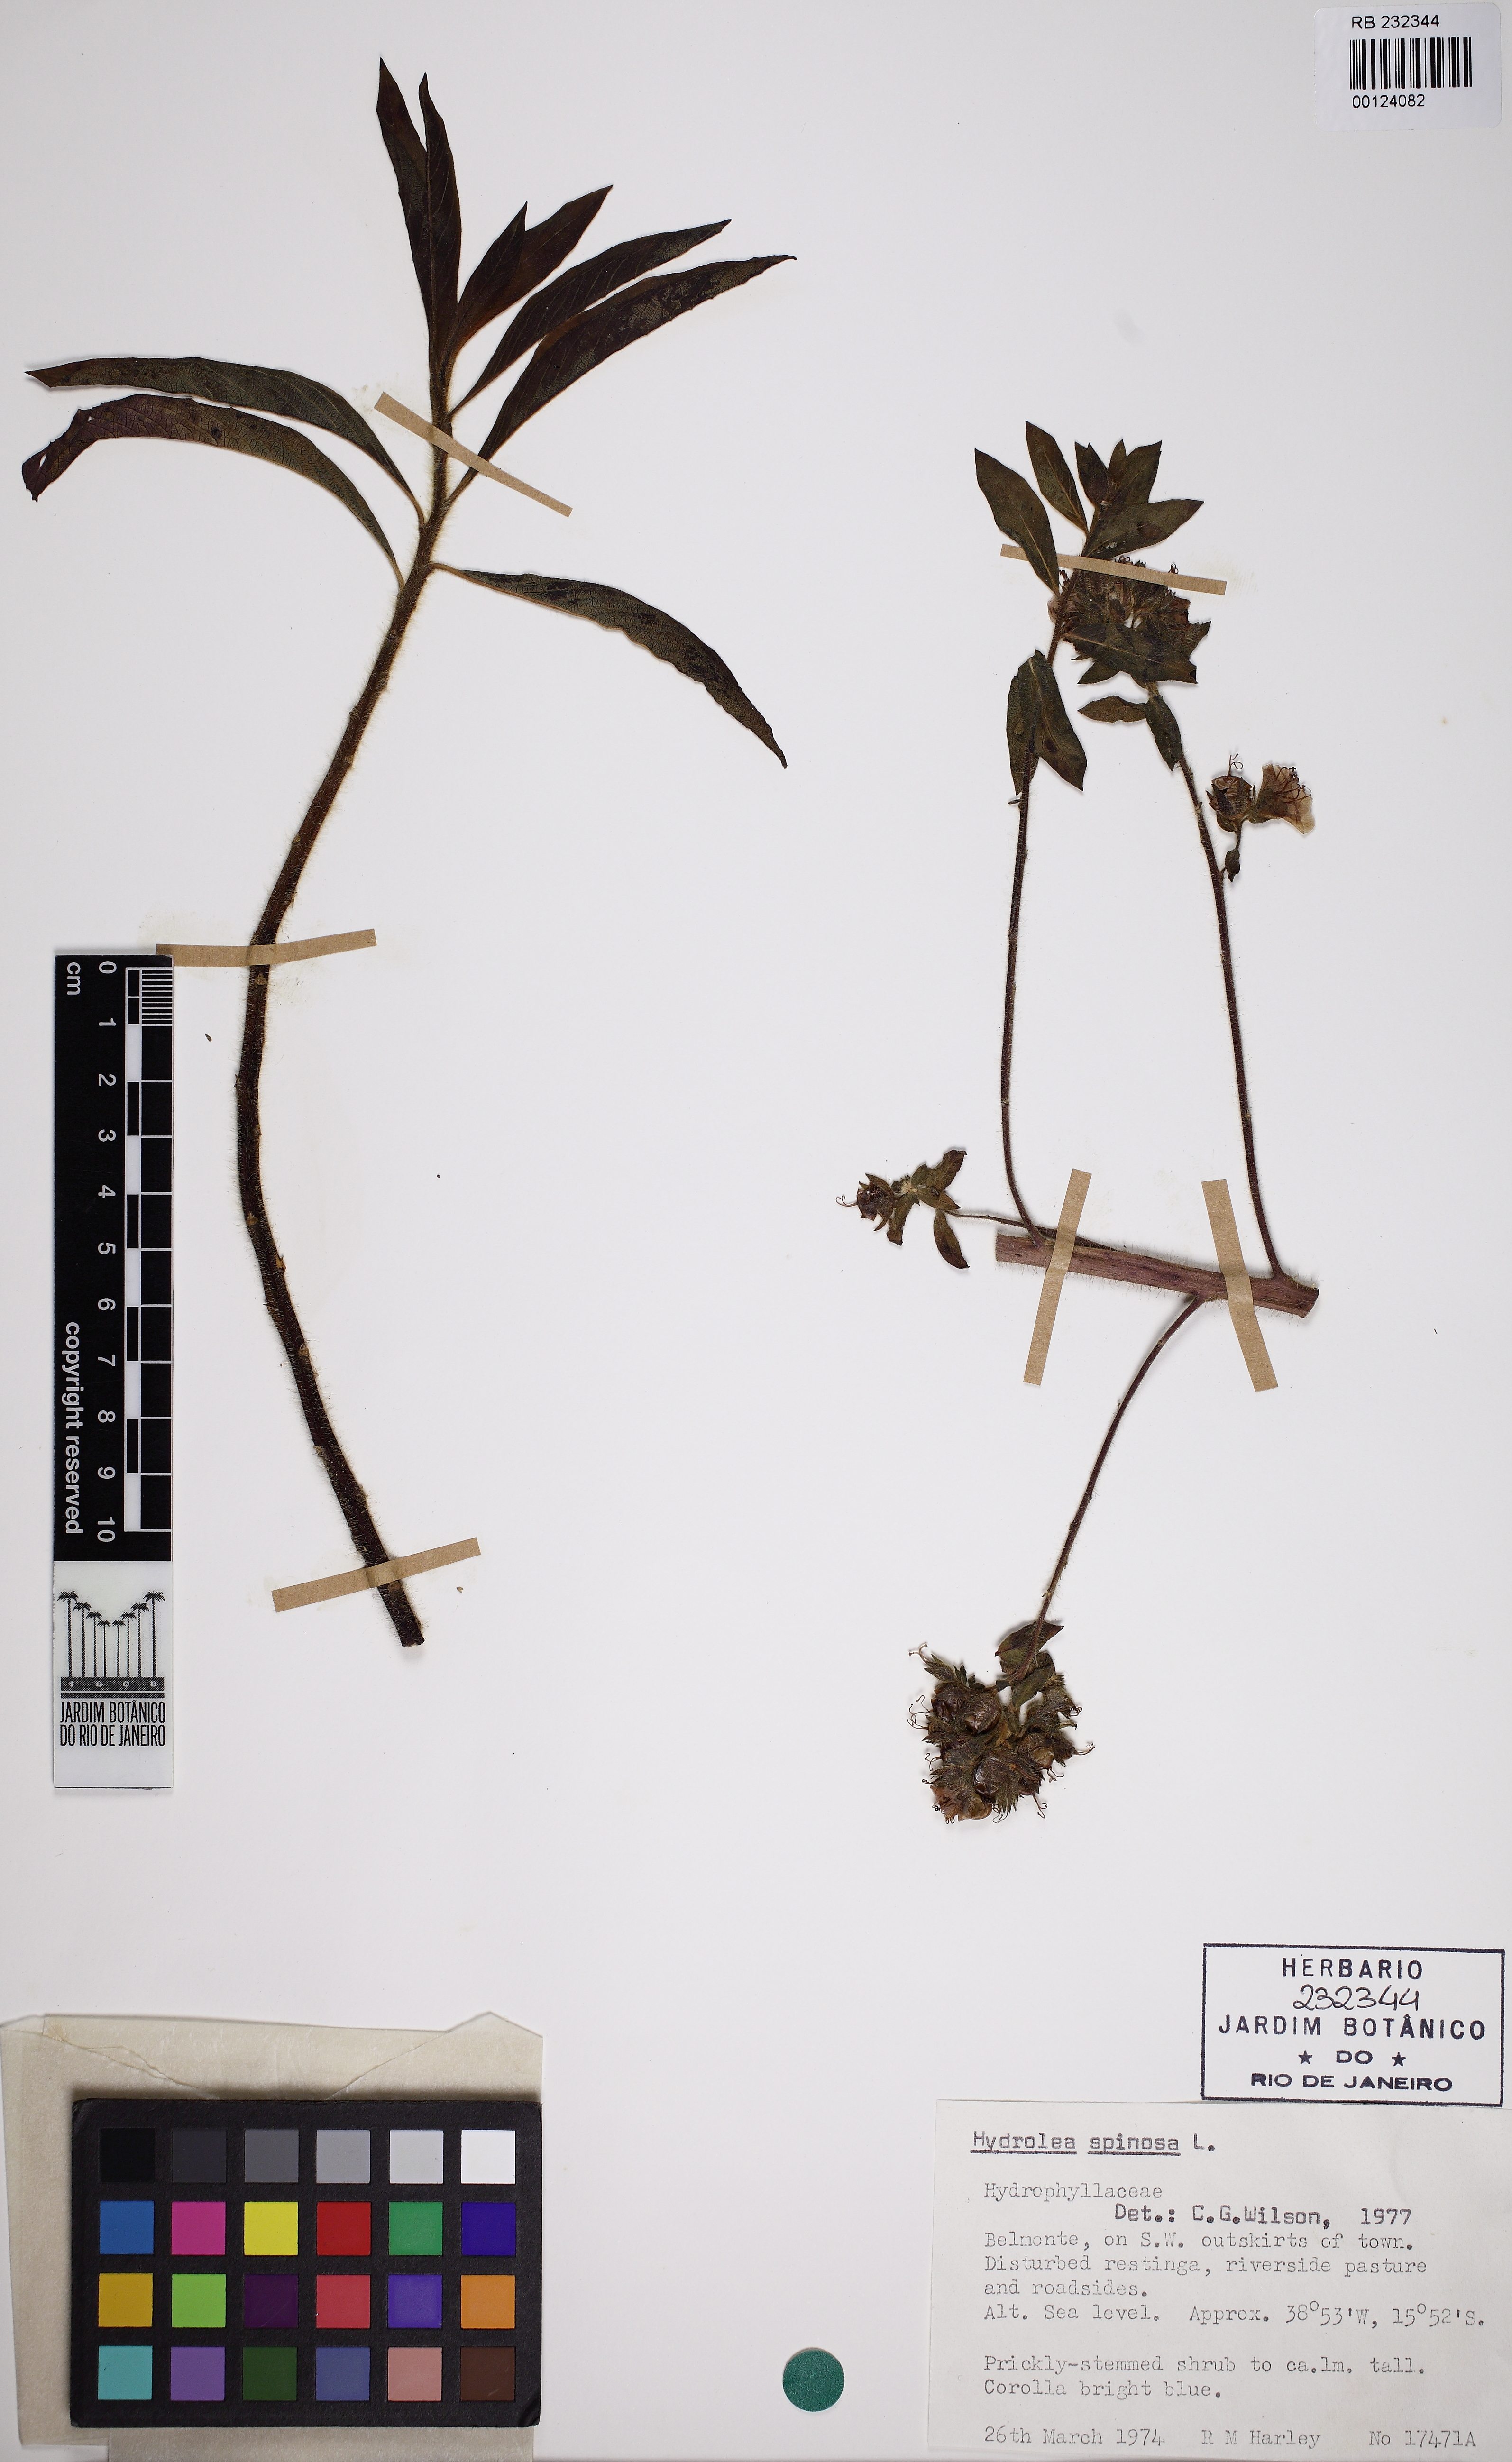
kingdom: Plantae
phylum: Tracheophyta
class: Magnoliopsida
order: Solanales
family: Hydroleaceae
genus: Hydrolea
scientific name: Hydrolea spinosa
